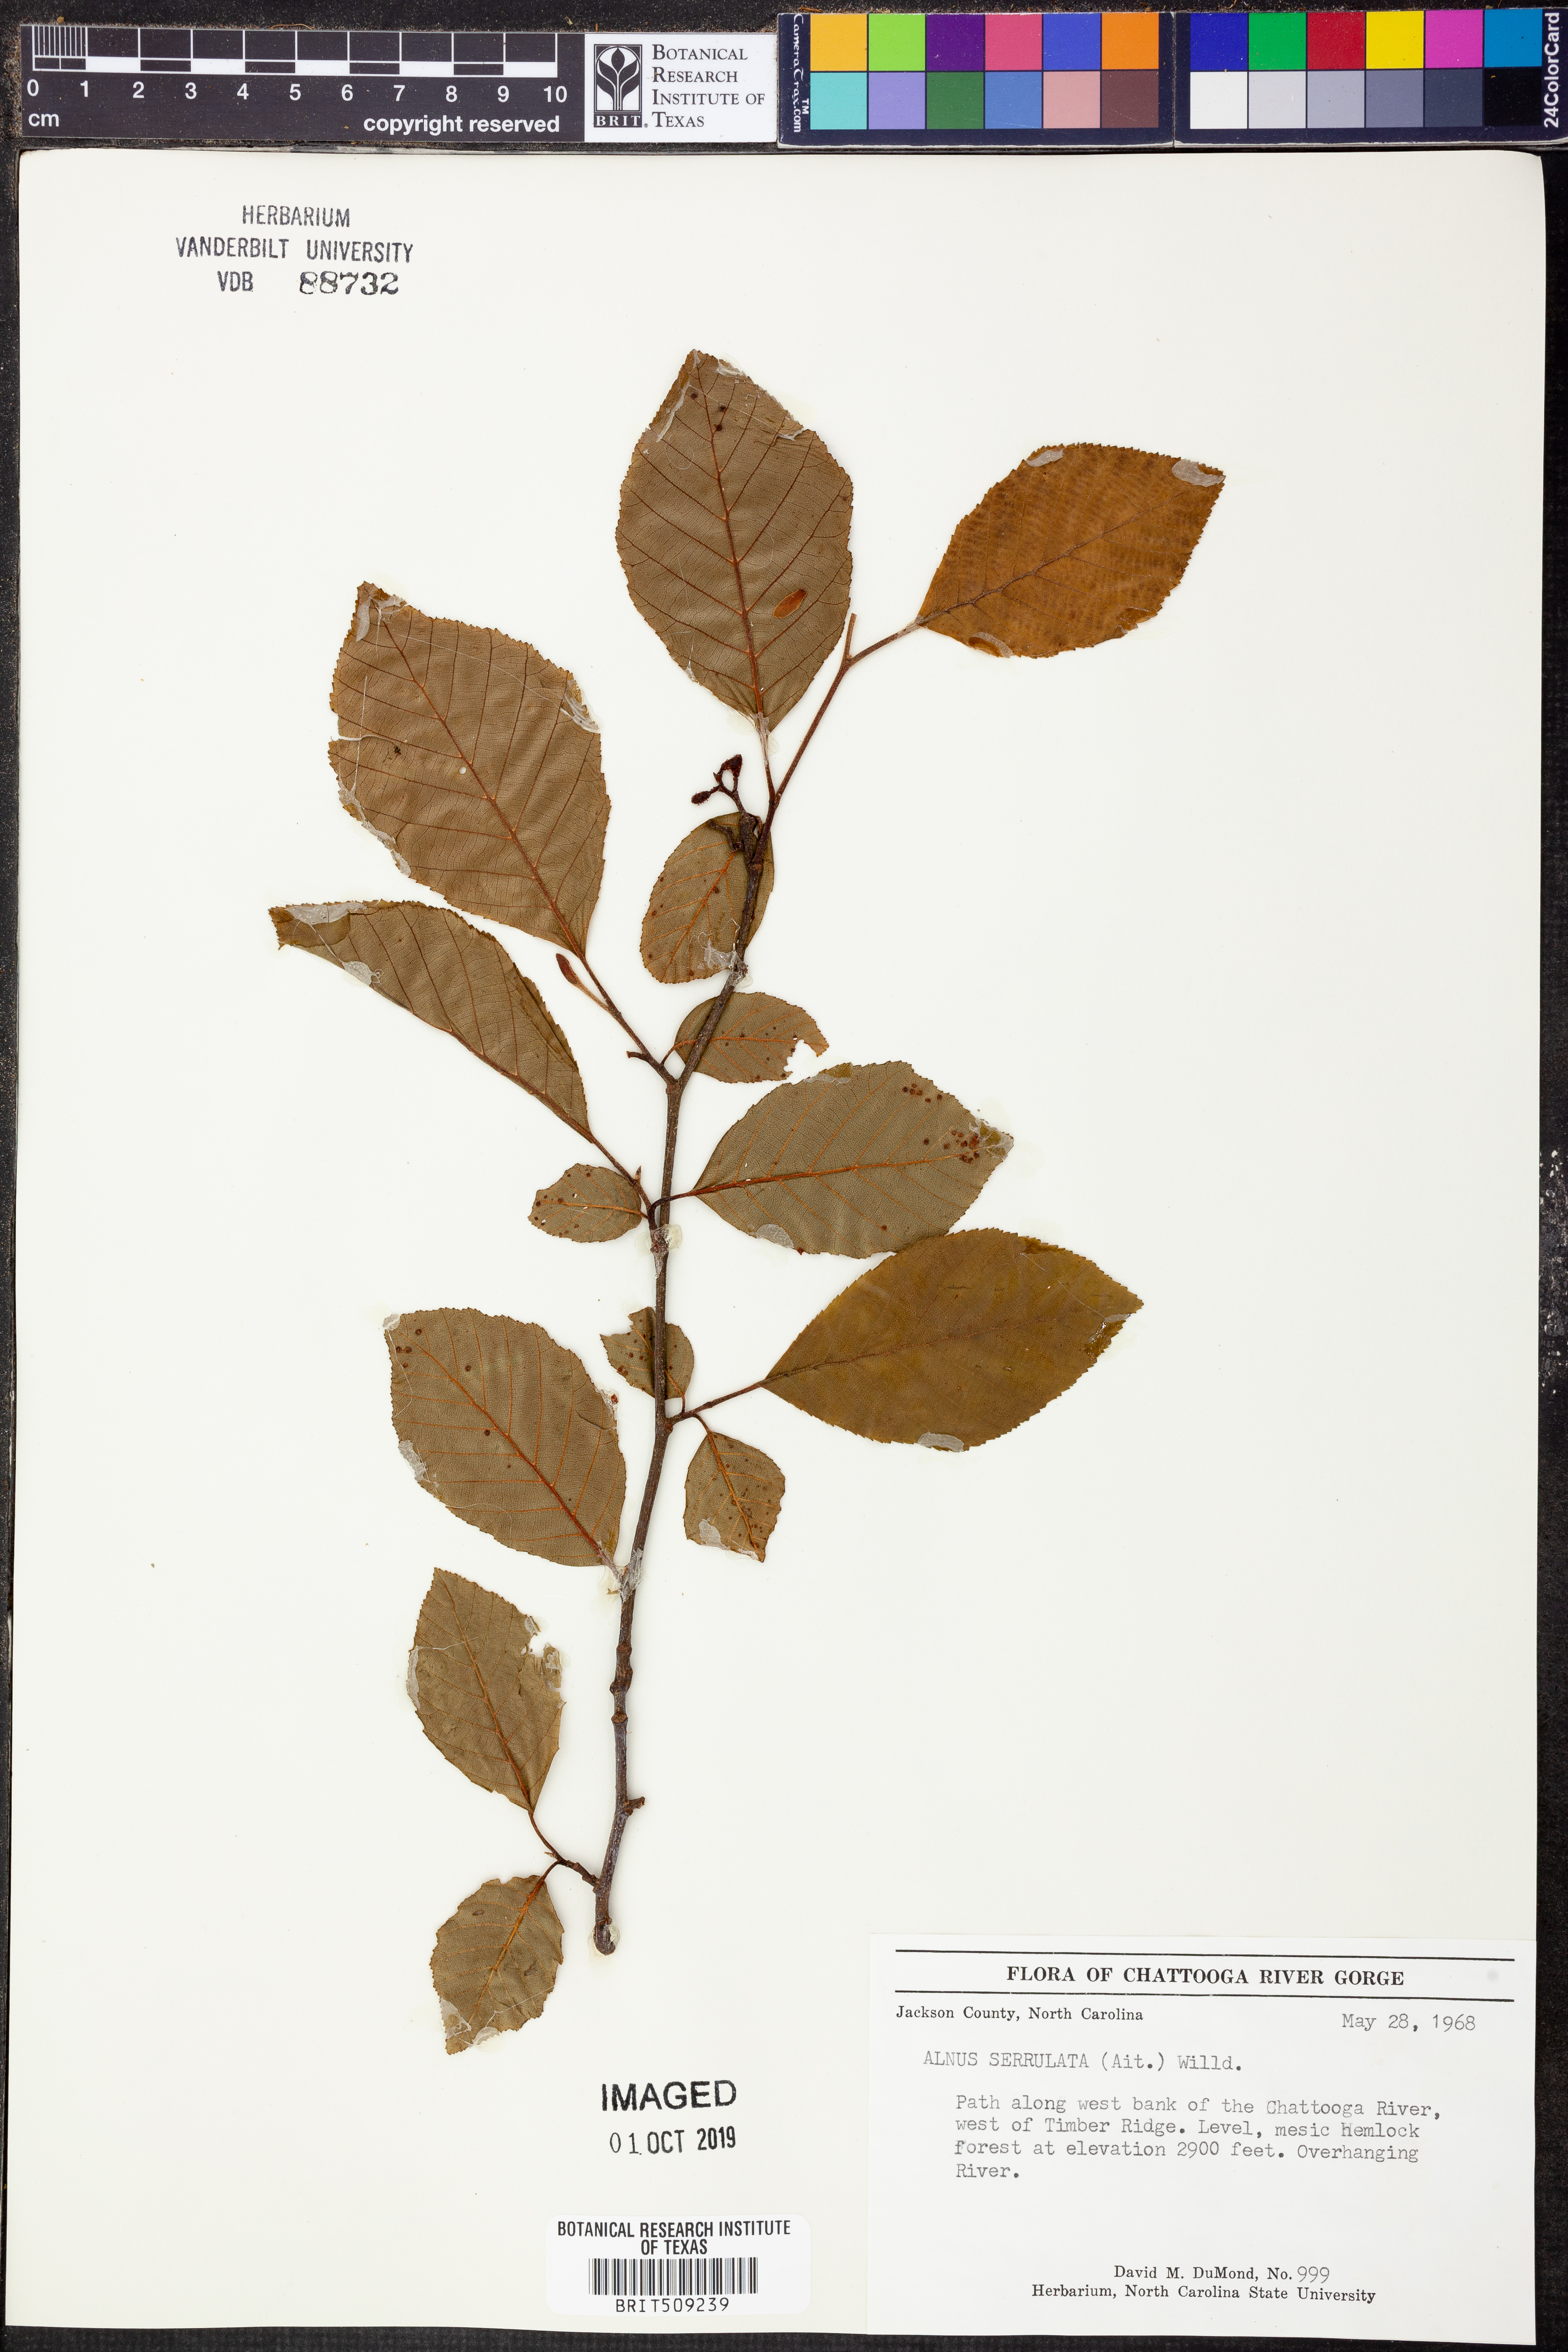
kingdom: Plantae
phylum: Tracheophyta
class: Magnoliopsida
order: Fagales
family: Betulaceae
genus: Alnus
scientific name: Alnus serrulata
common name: Hazel alder
